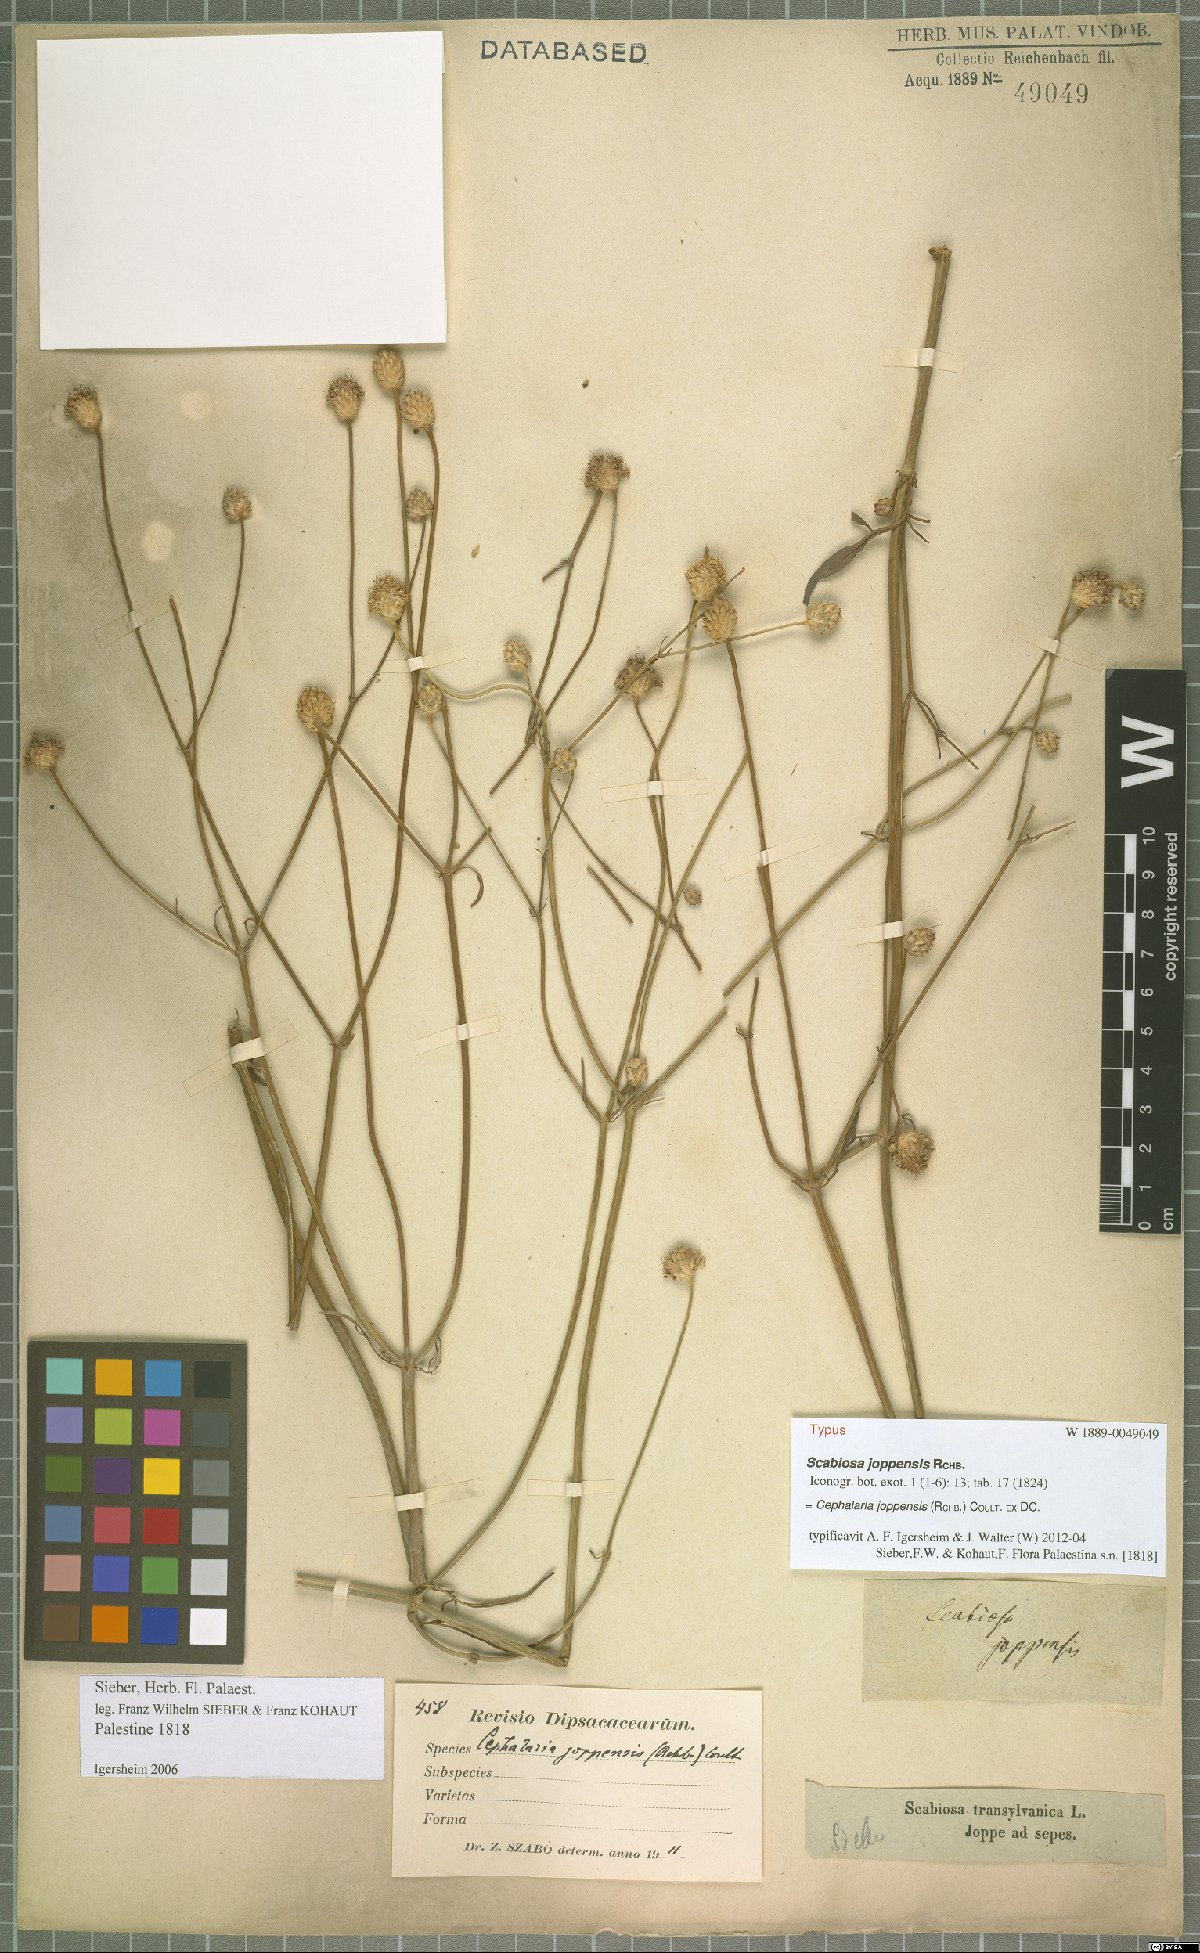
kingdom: Plantae
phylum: Tracheophyta
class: Magnoliopsida
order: Dipsacales
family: Caprifoliaceae
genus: Cephalaria
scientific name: Cephalaria joppensis
